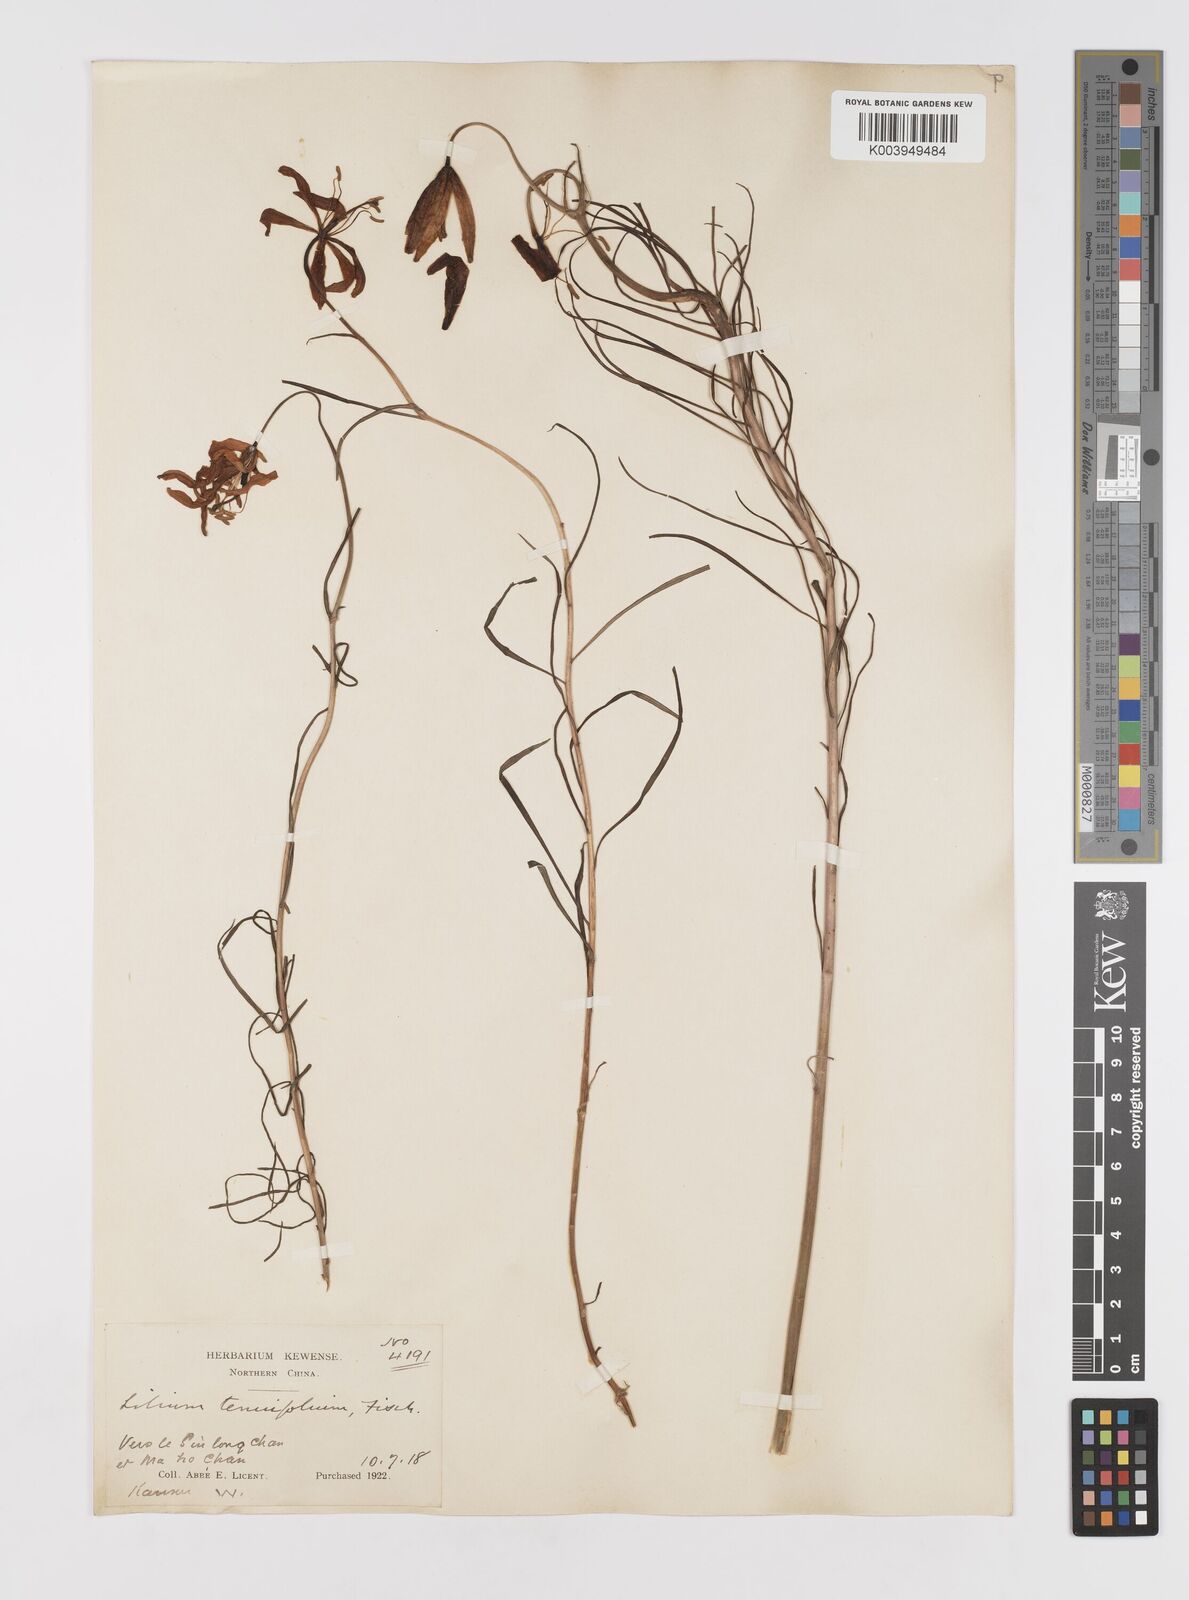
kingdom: Plantae
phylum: Tracheophyta
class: Liliopsida
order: Liliales
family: Liliaceae
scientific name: Liliaceae
